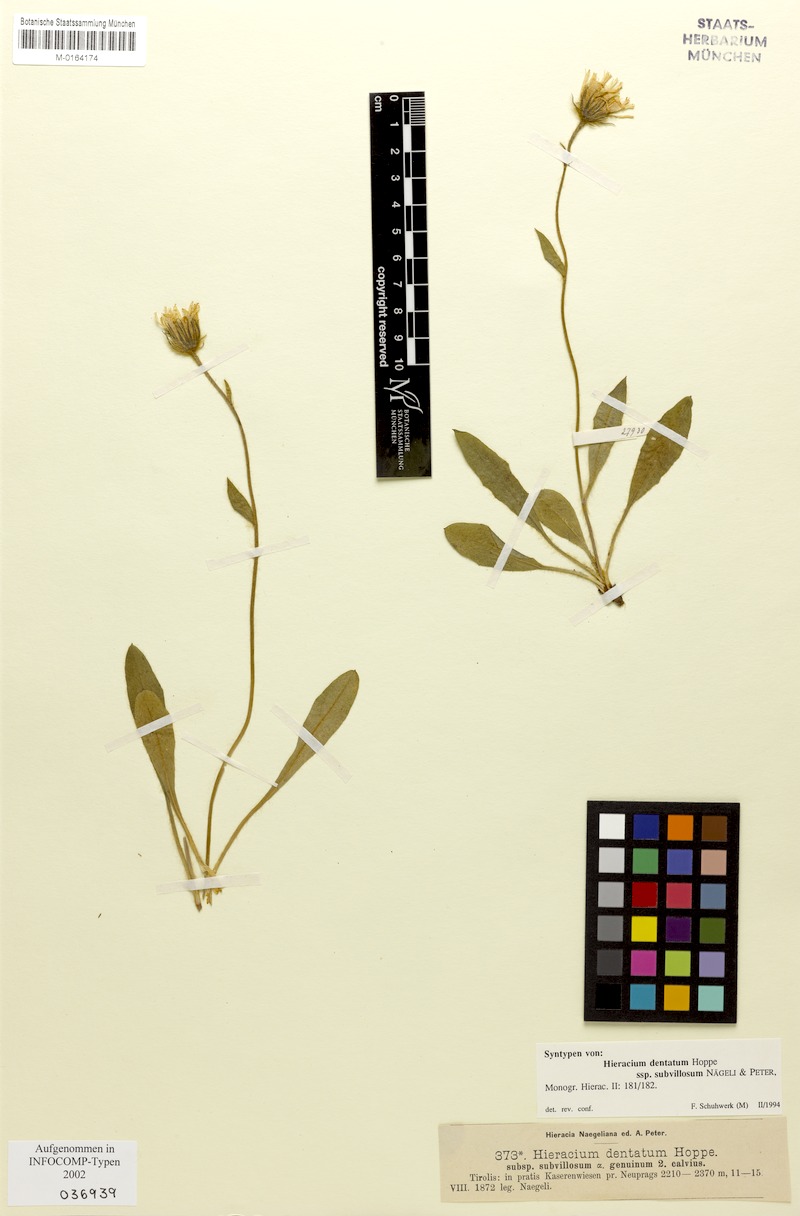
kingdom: Plantae
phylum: Tracheophyta
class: Magnoliopsida
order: Asterales
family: Asteraceae
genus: Hieracium
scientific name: Hieracium dentatum
